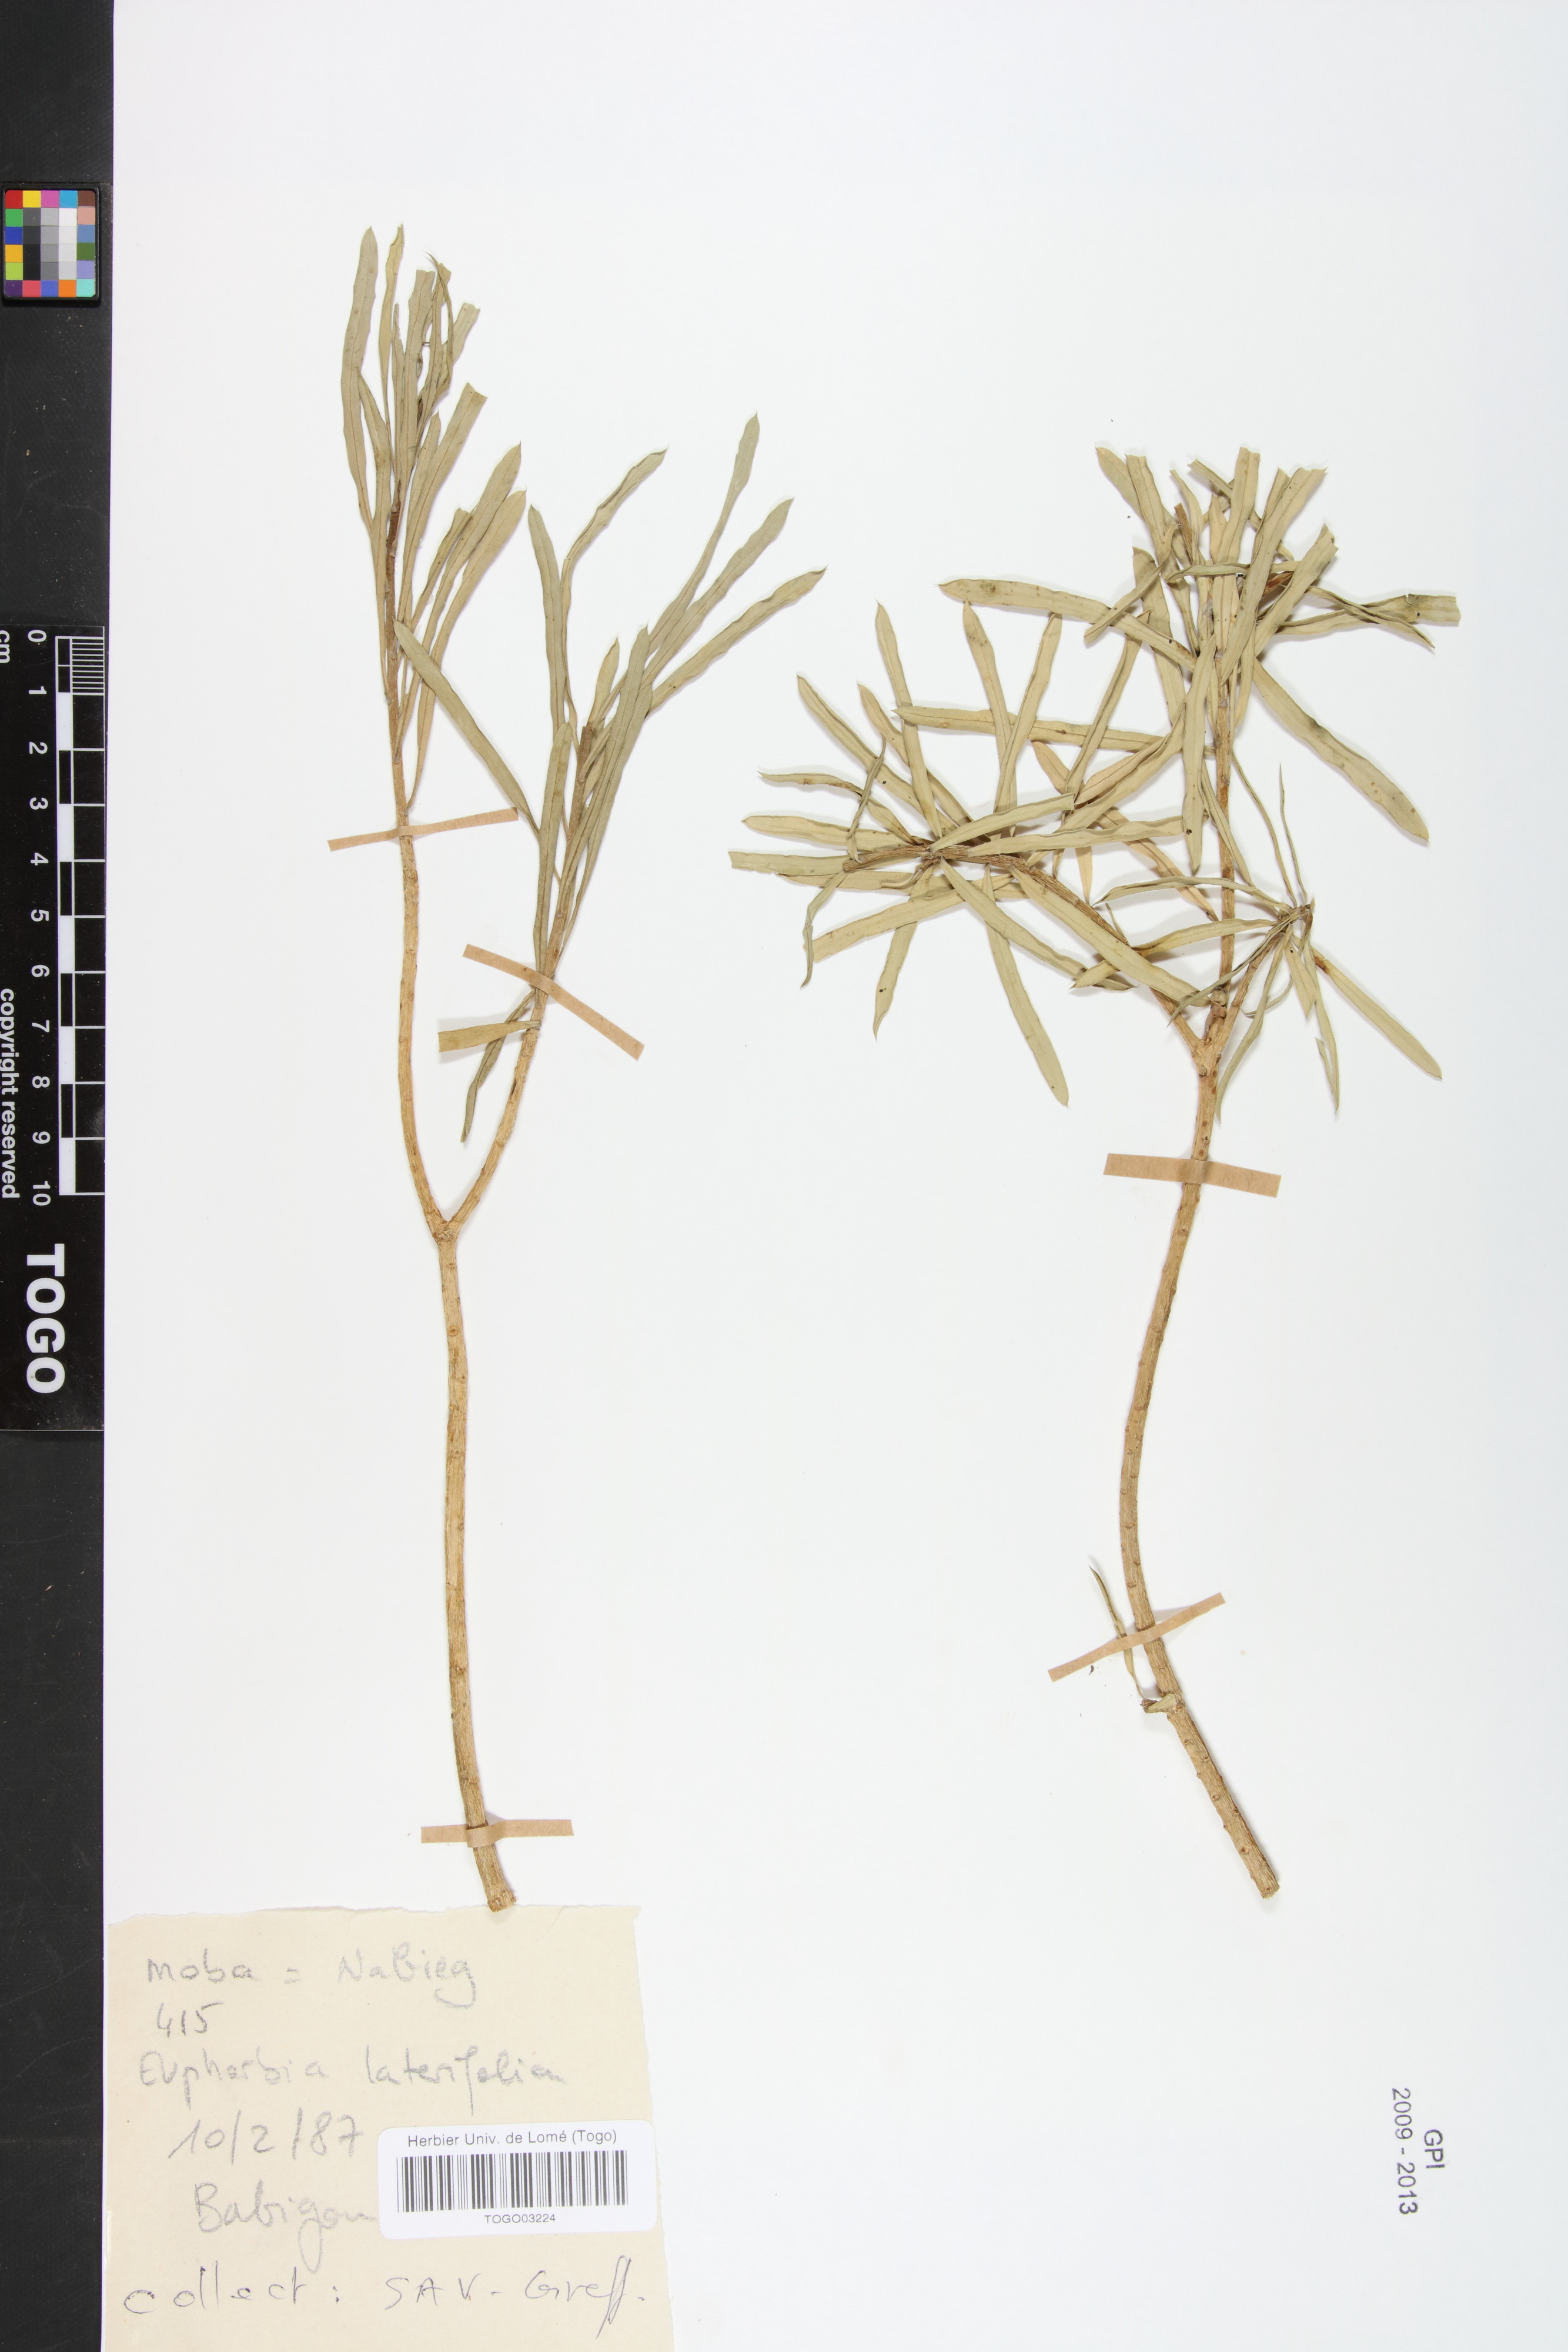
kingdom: Plantae
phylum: Tracheophyta
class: Magnoliopsida
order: Malpighiales
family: Euphorbiaceae
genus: Euphorbia
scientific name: Euphorbia lateriflora
